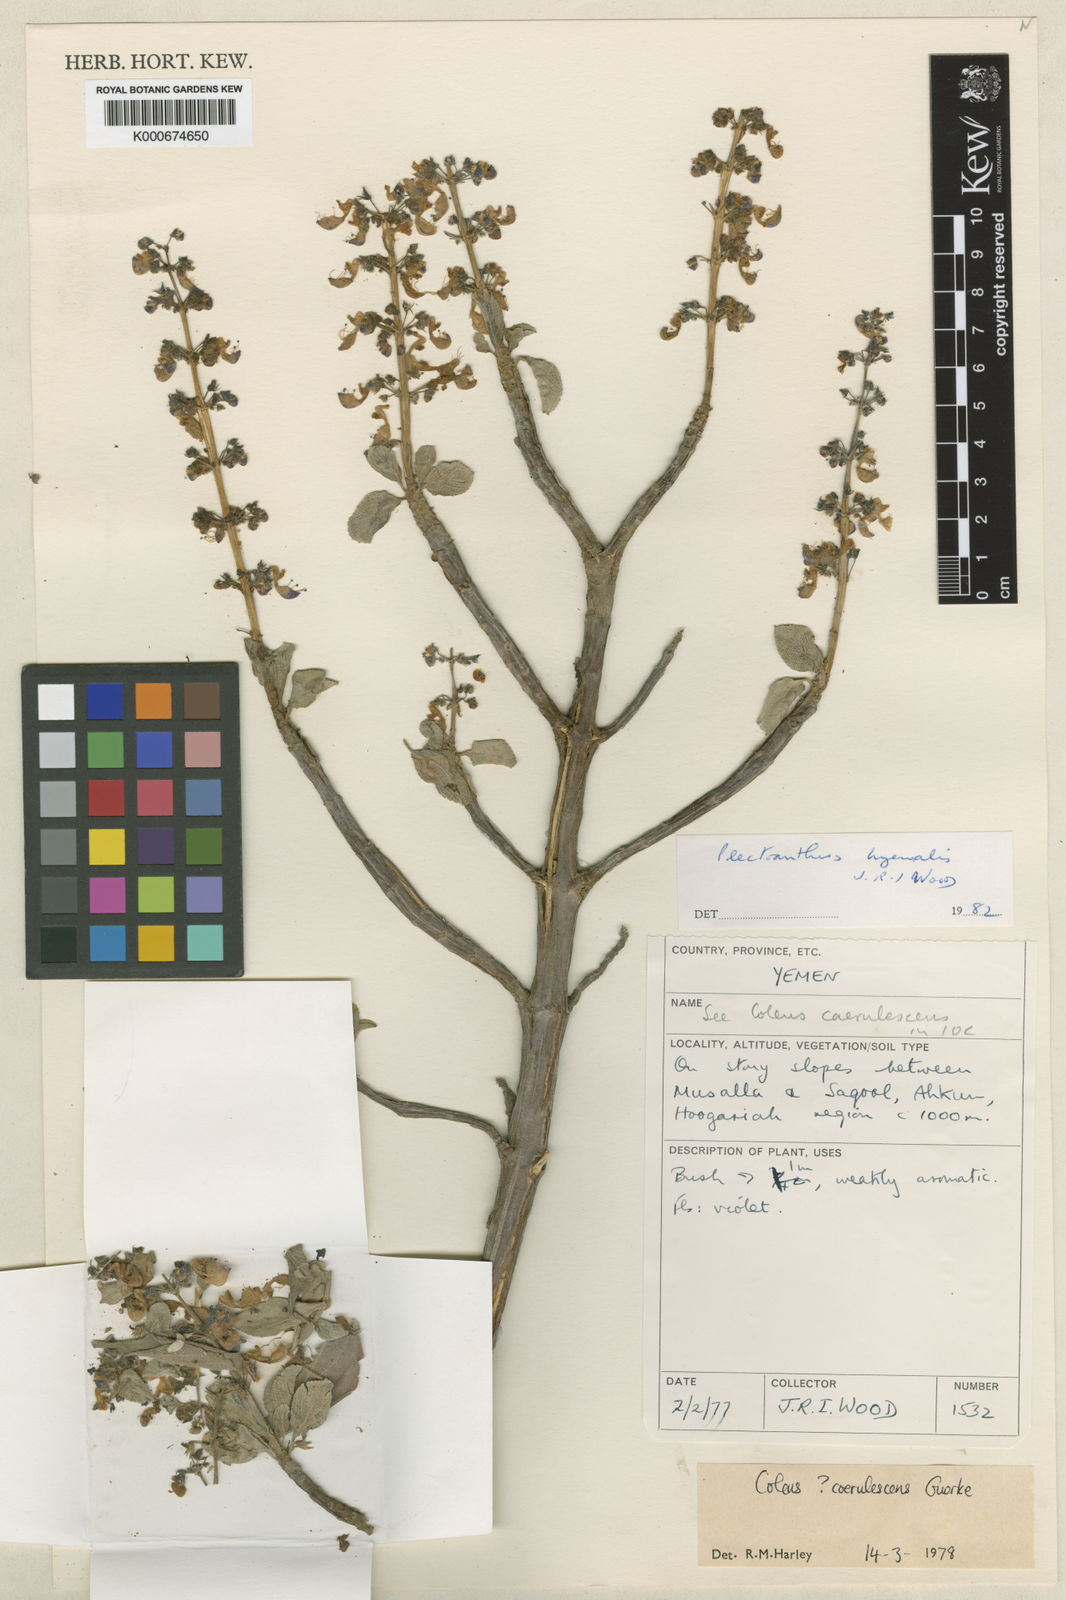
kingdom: Plantae
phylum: Tracheophyta
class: Magnoliopsida
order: Lamiales
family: Lamiaceae
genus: Coleus
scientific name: Coleus hymalis
